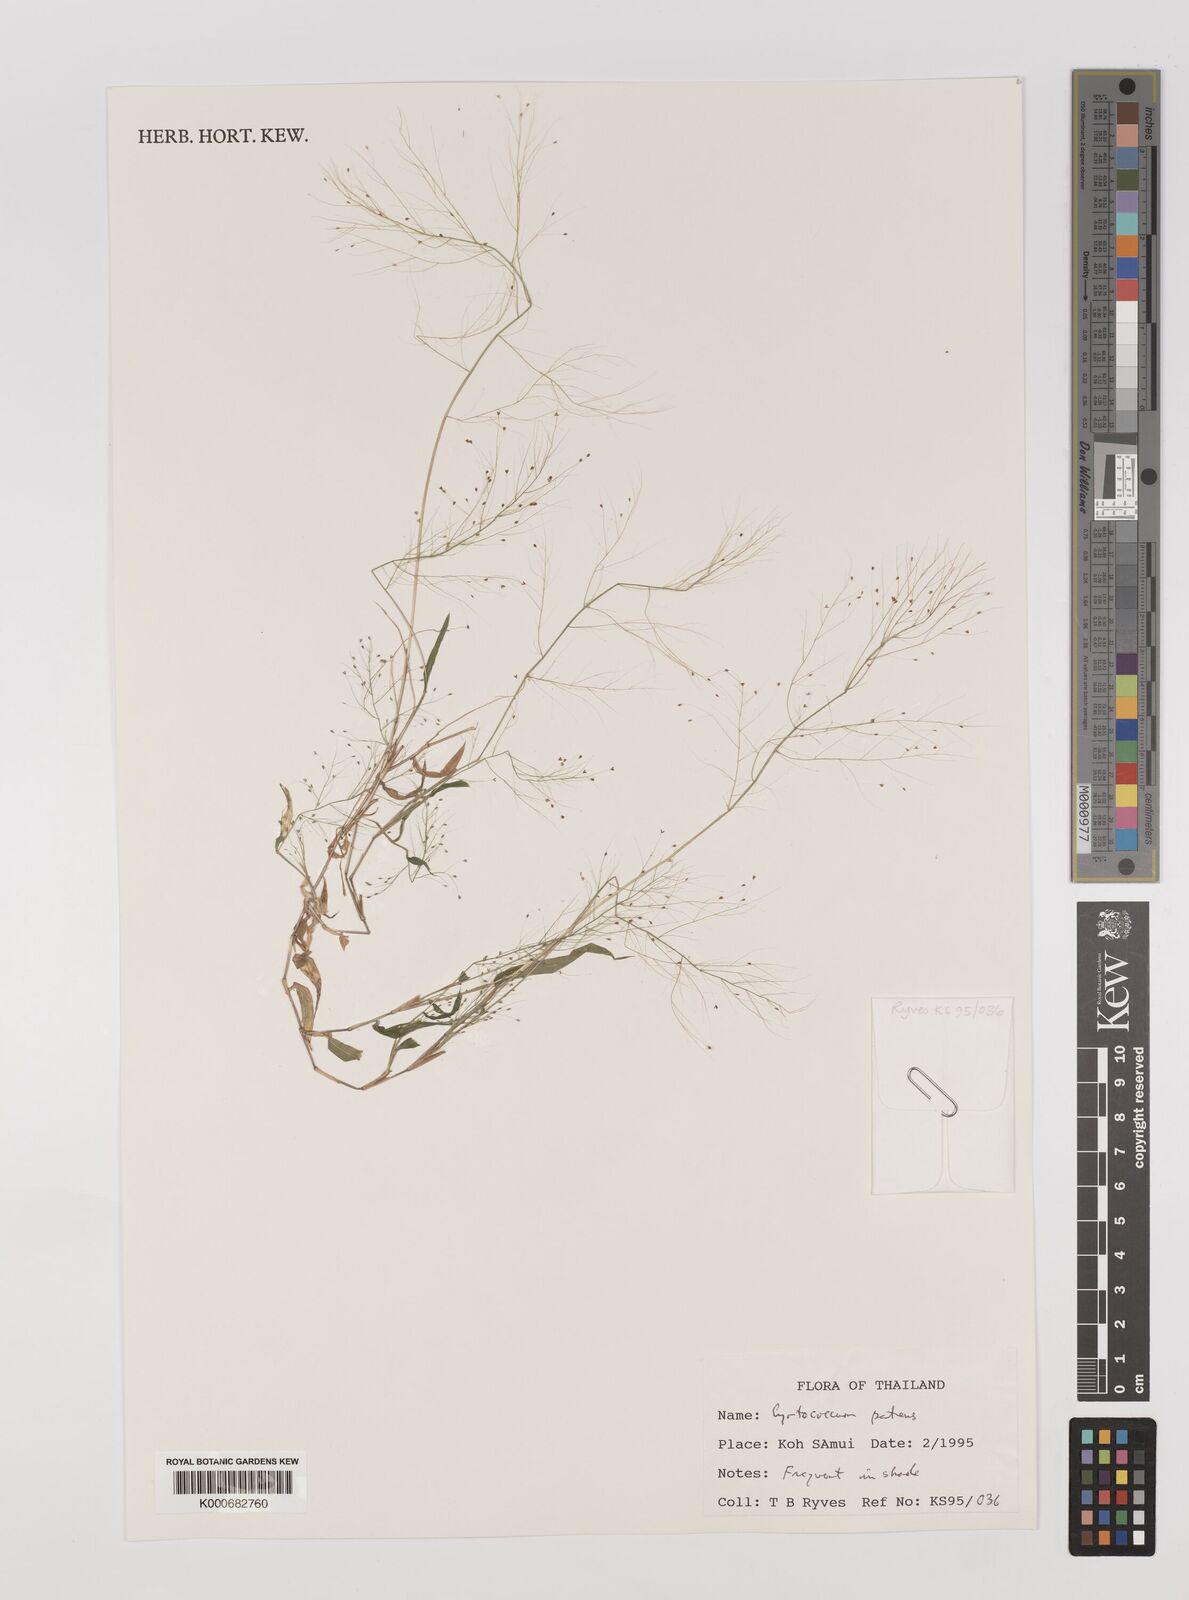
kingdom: Plantae
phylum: Tracheophyta
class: Liliopsida
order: Poales
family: Poaceae
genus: Panicum
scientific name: Panicum trichoides
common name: Tickle grass
